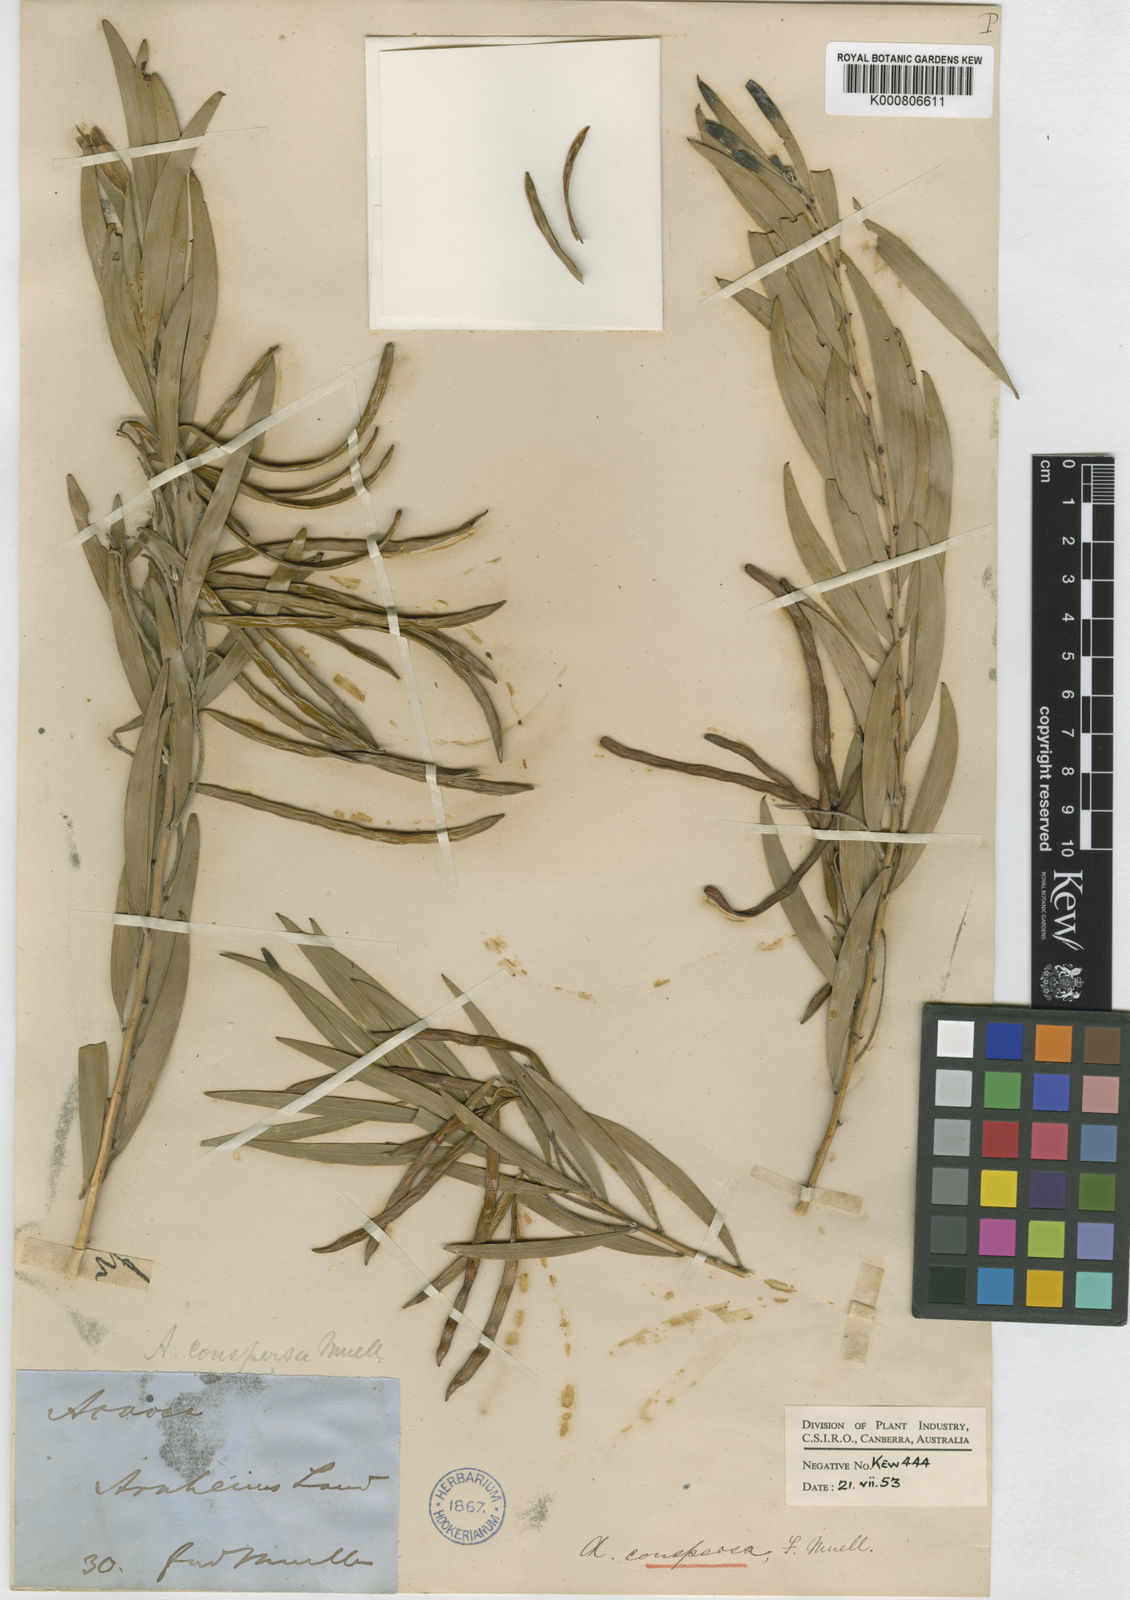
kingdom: Plantae
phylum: Tracheophyta
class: Magnoliopsida
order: Fabales
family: Fabaceae
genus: Acacia
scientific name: Acacia conspersa
